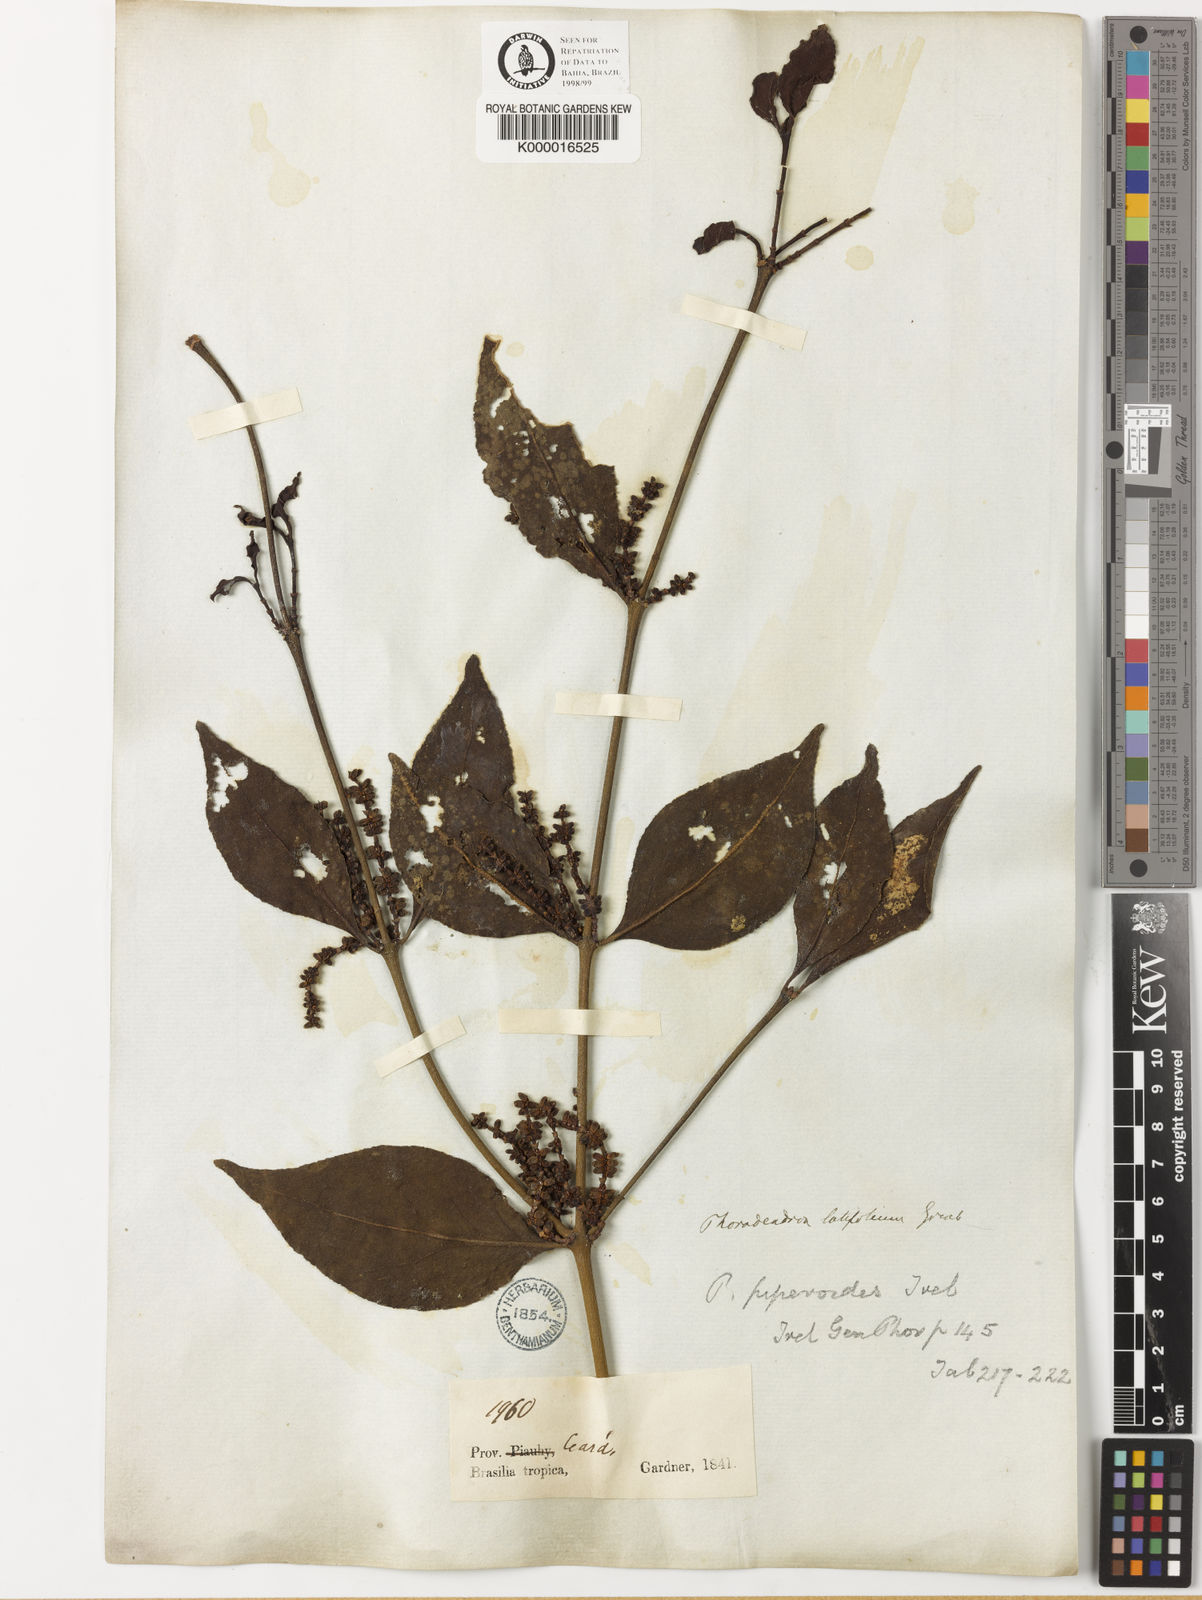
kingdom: Plantae
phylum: Tracheophyta
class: Magnoliopsida
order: Santalales
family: Viscaceae
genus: Phoradendron
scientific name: Phoradendron piperoides
